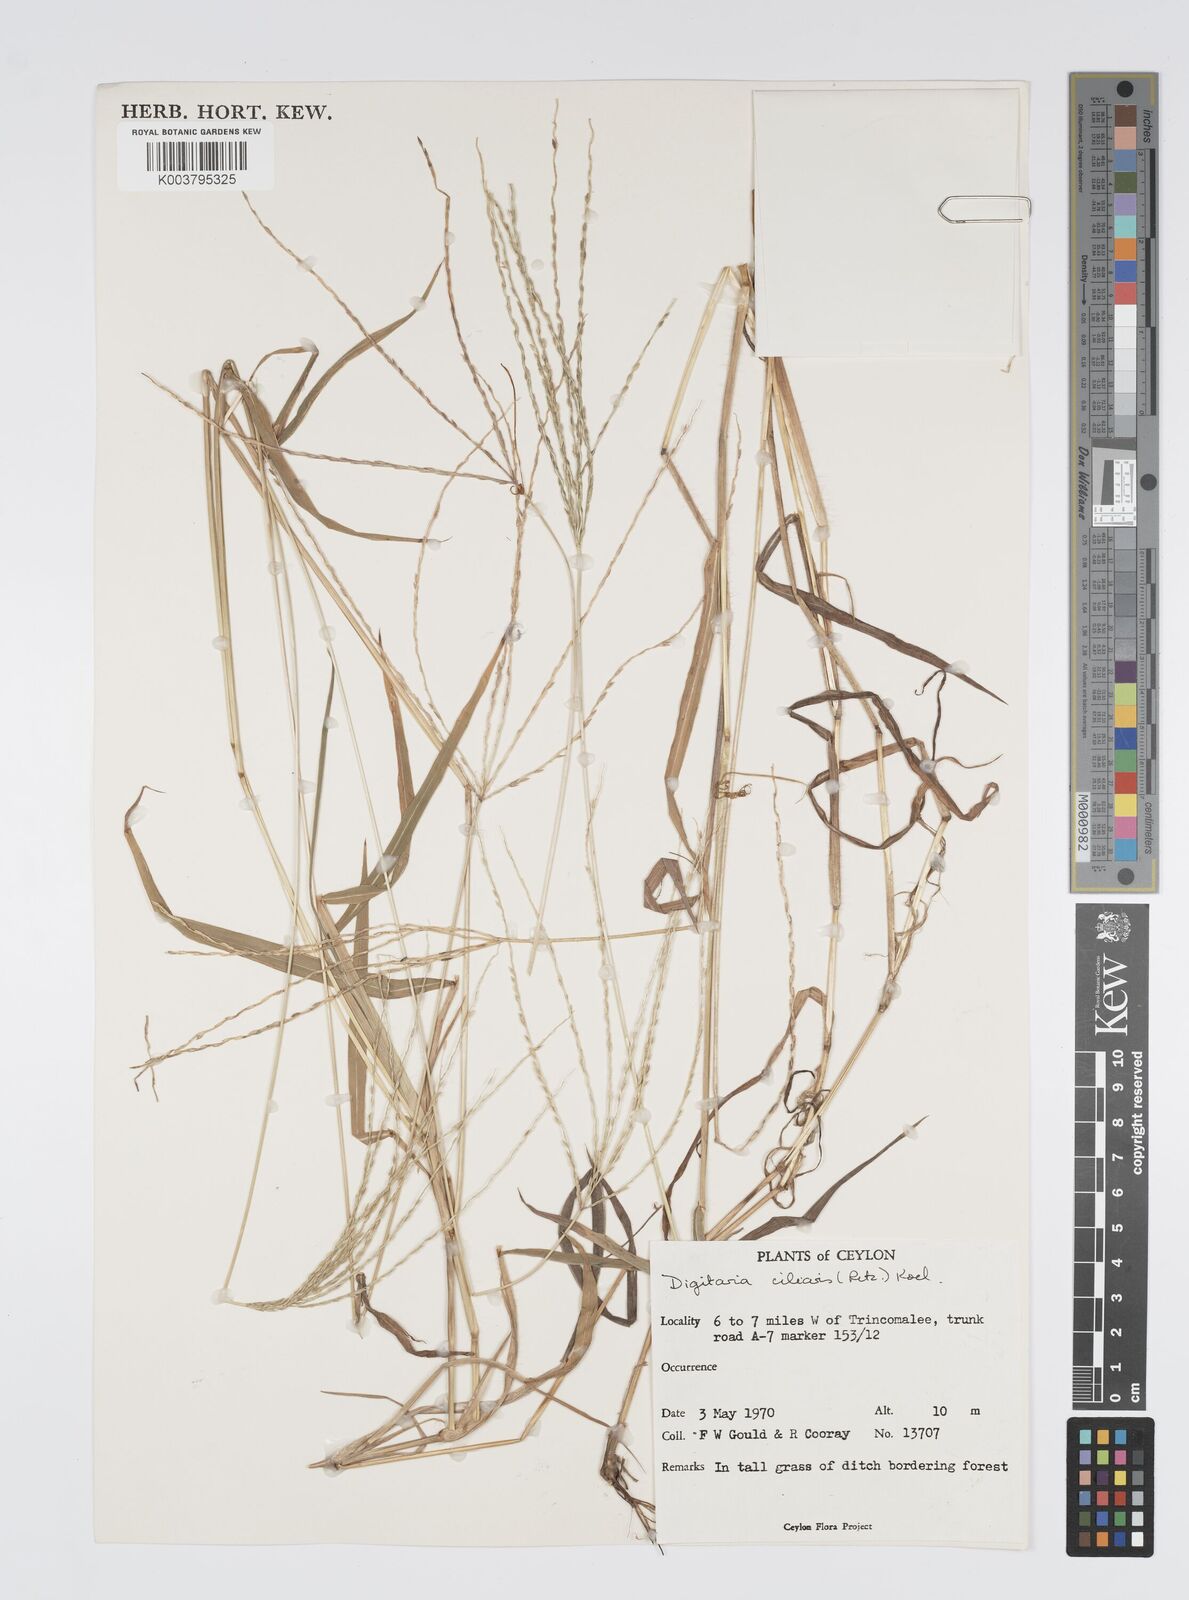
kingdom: Plantae
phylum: Tracheophyta
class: Liliopsida
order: Poales
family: Poaceae
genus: Digitaria
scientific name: Digitaria ciliaris
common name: Tropical finger-grass
